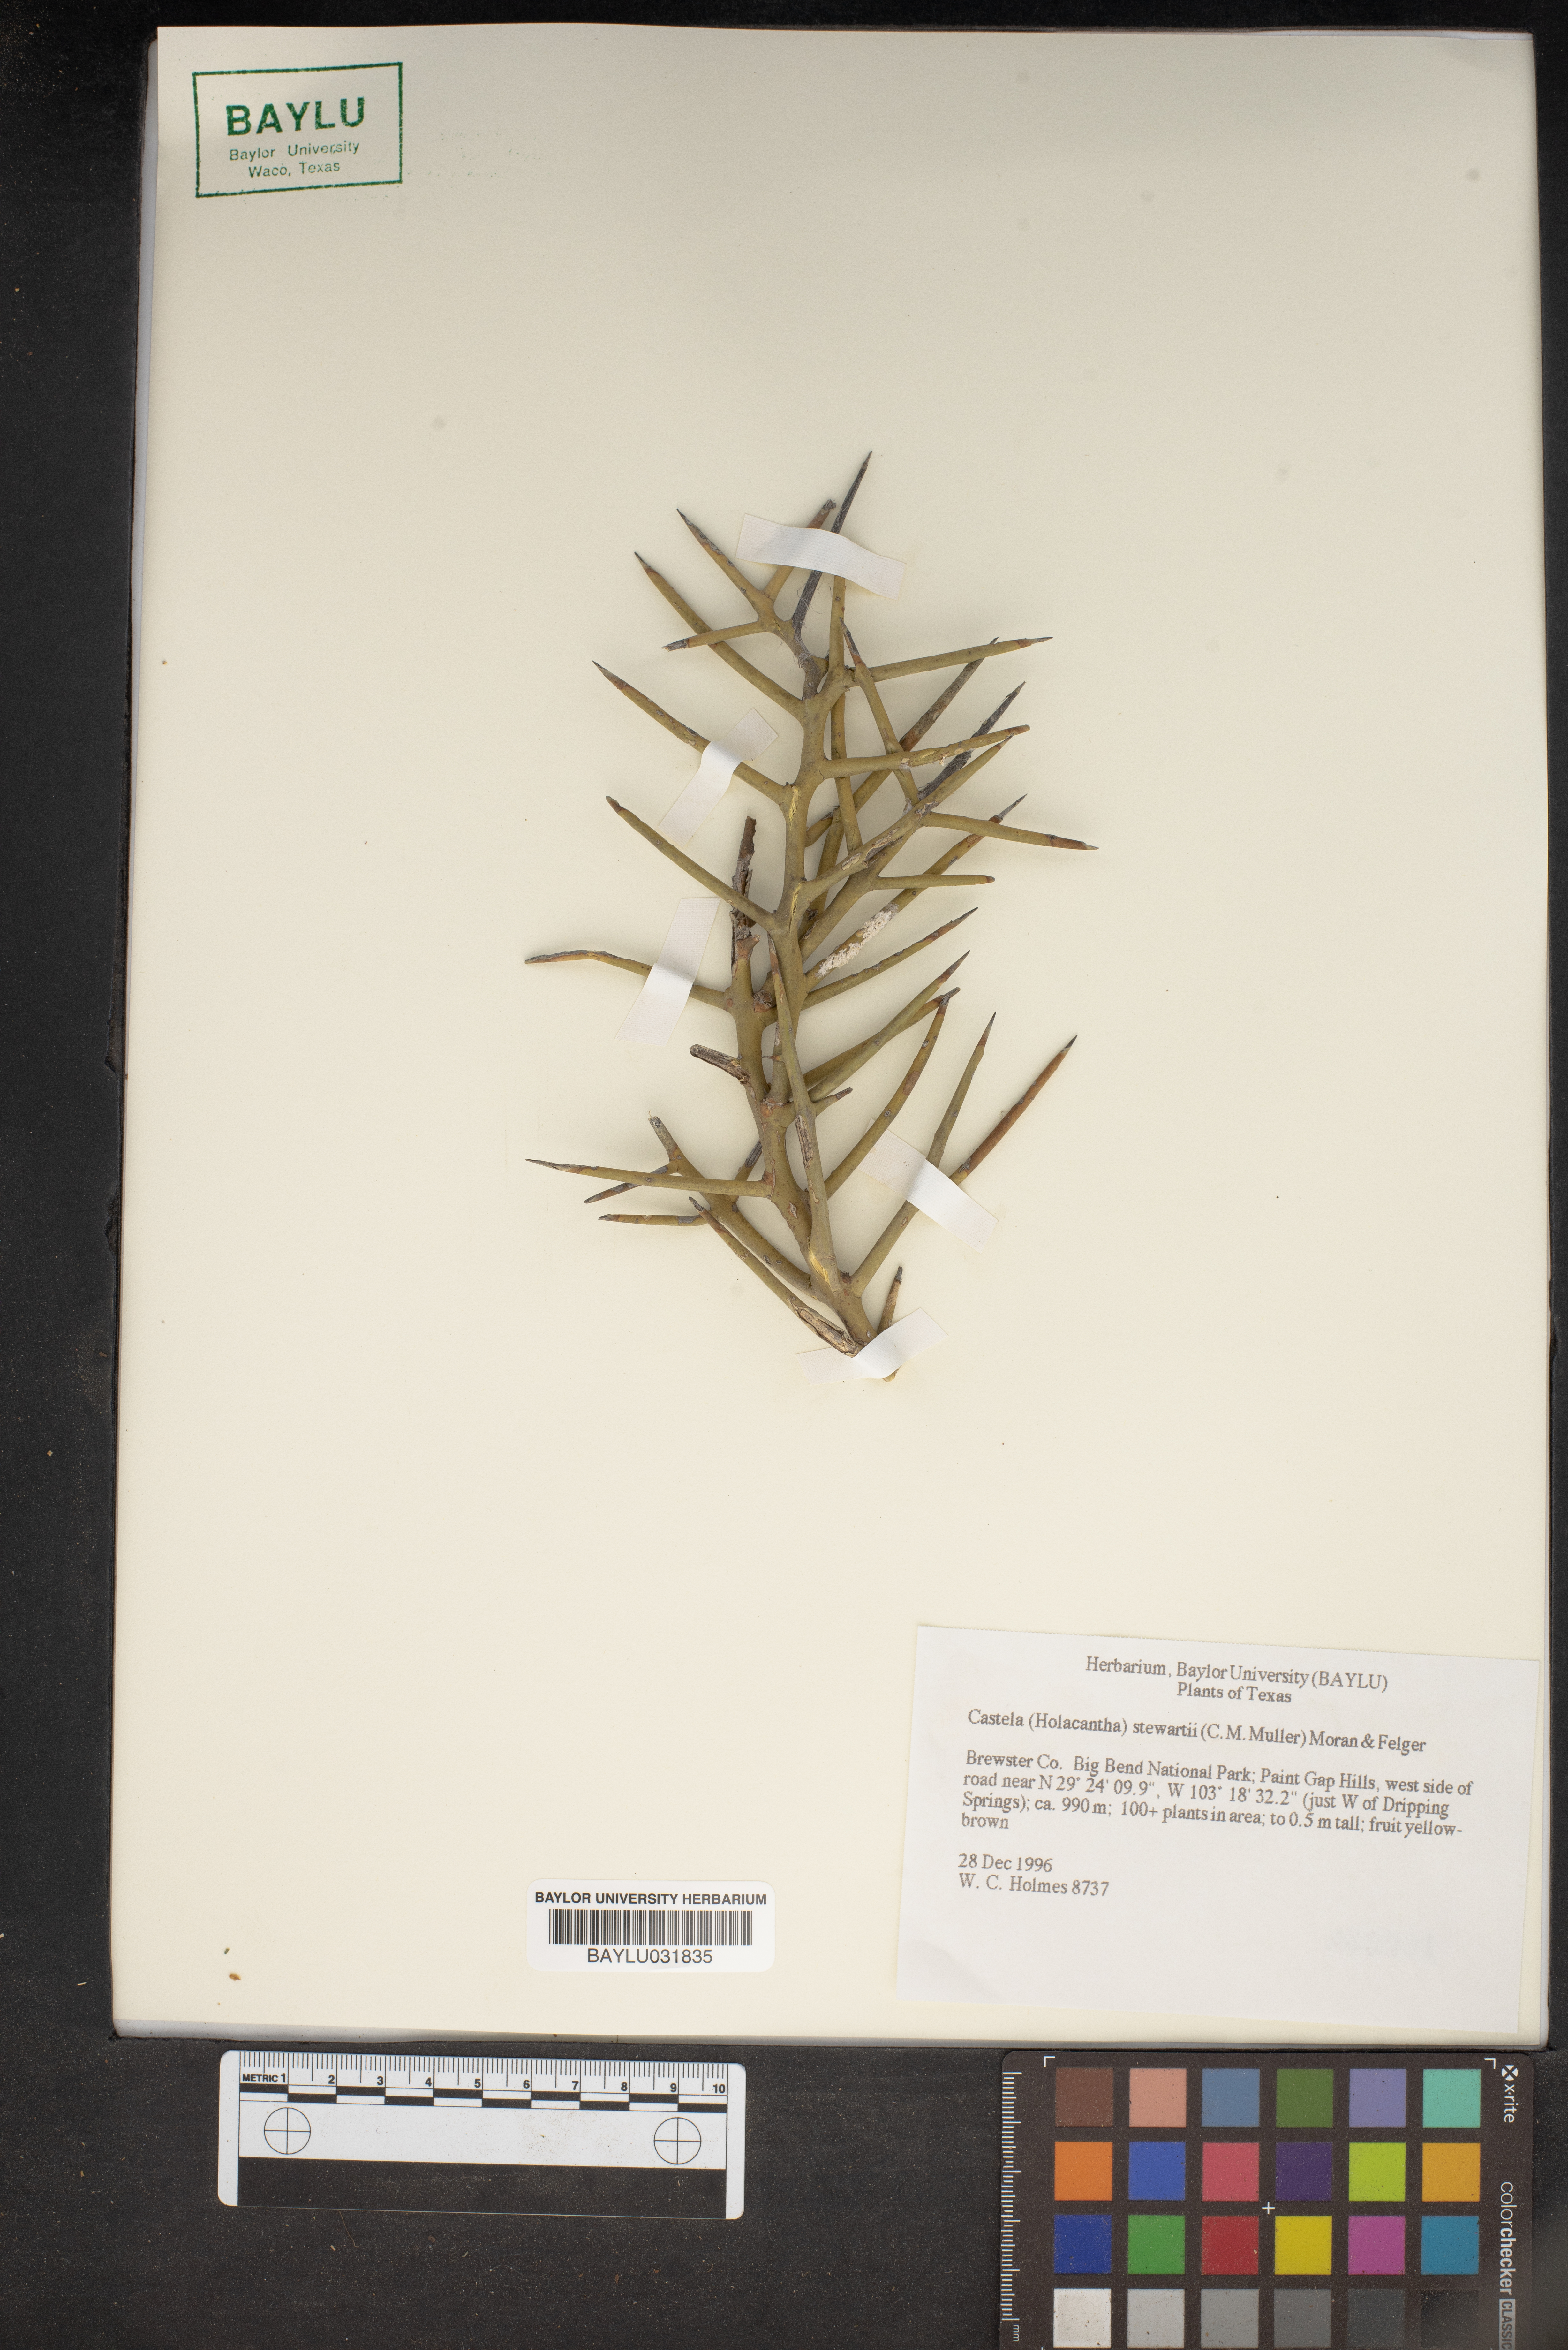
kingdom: Plantae
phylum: Tracheophyta
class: Magnoliopsida
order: Sapindales
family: Simaroubaceae
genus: Holacantha
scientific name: Holacantha stewartii
